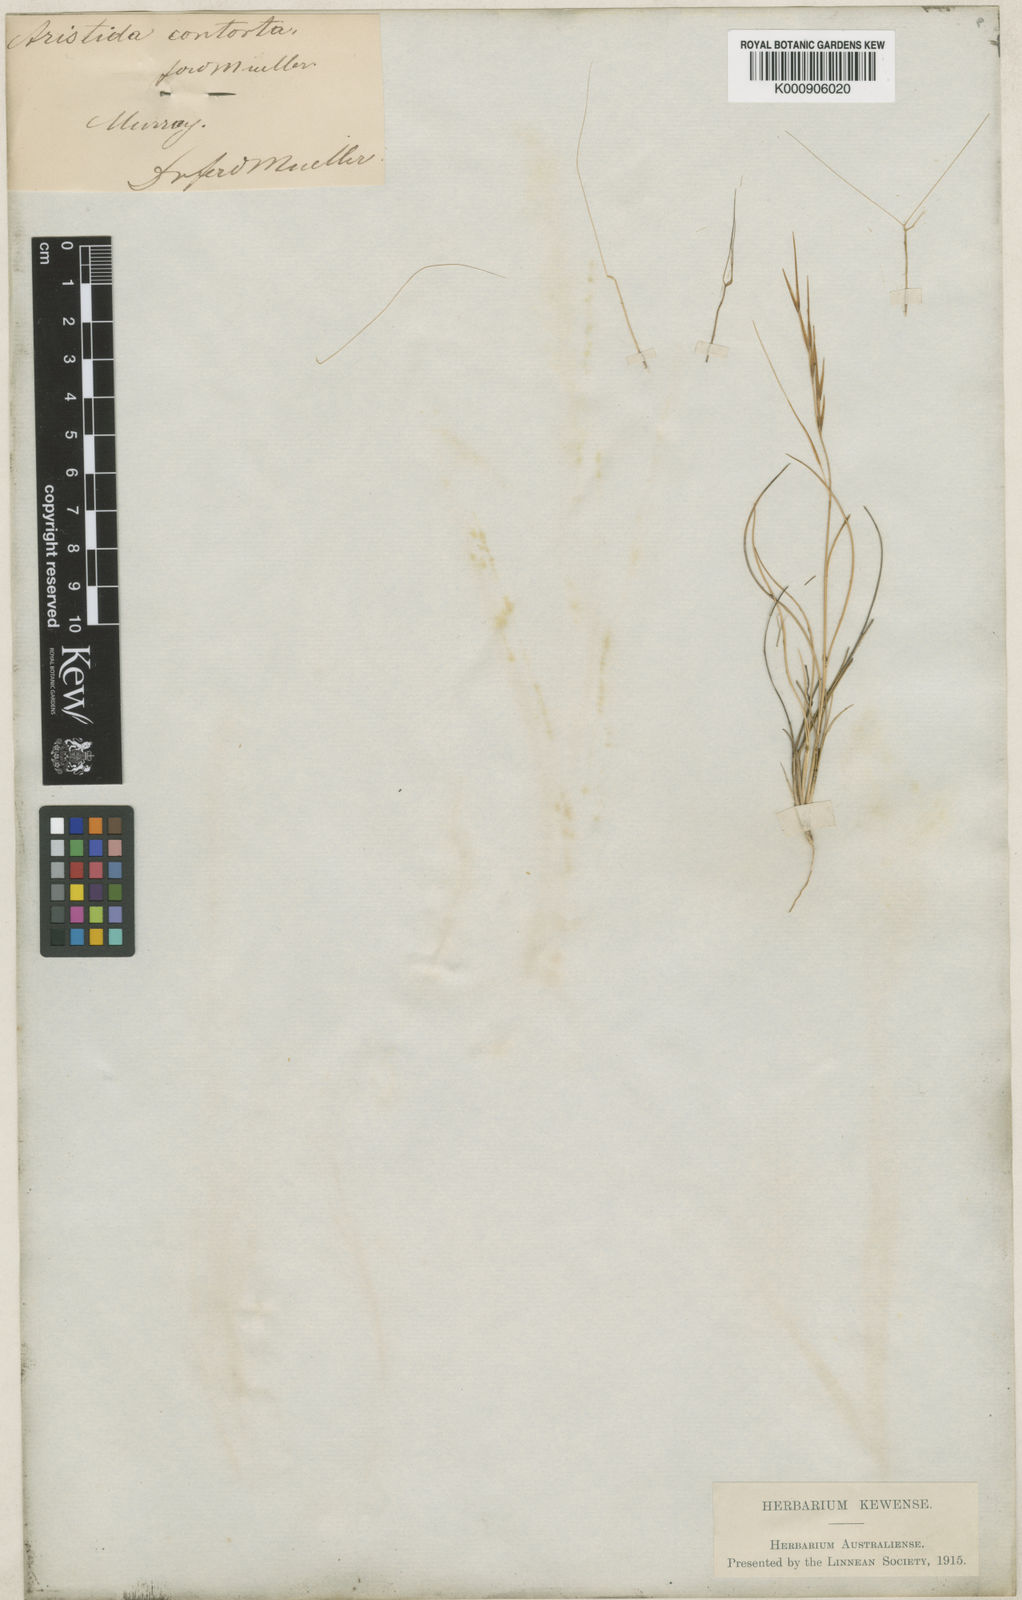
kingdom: Plantae
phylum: Tracheophyta
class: Liliopsida
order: Poales
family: Poaceae
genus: Aristida
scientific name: Aristida contorta
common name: Bunch kerosene grass
